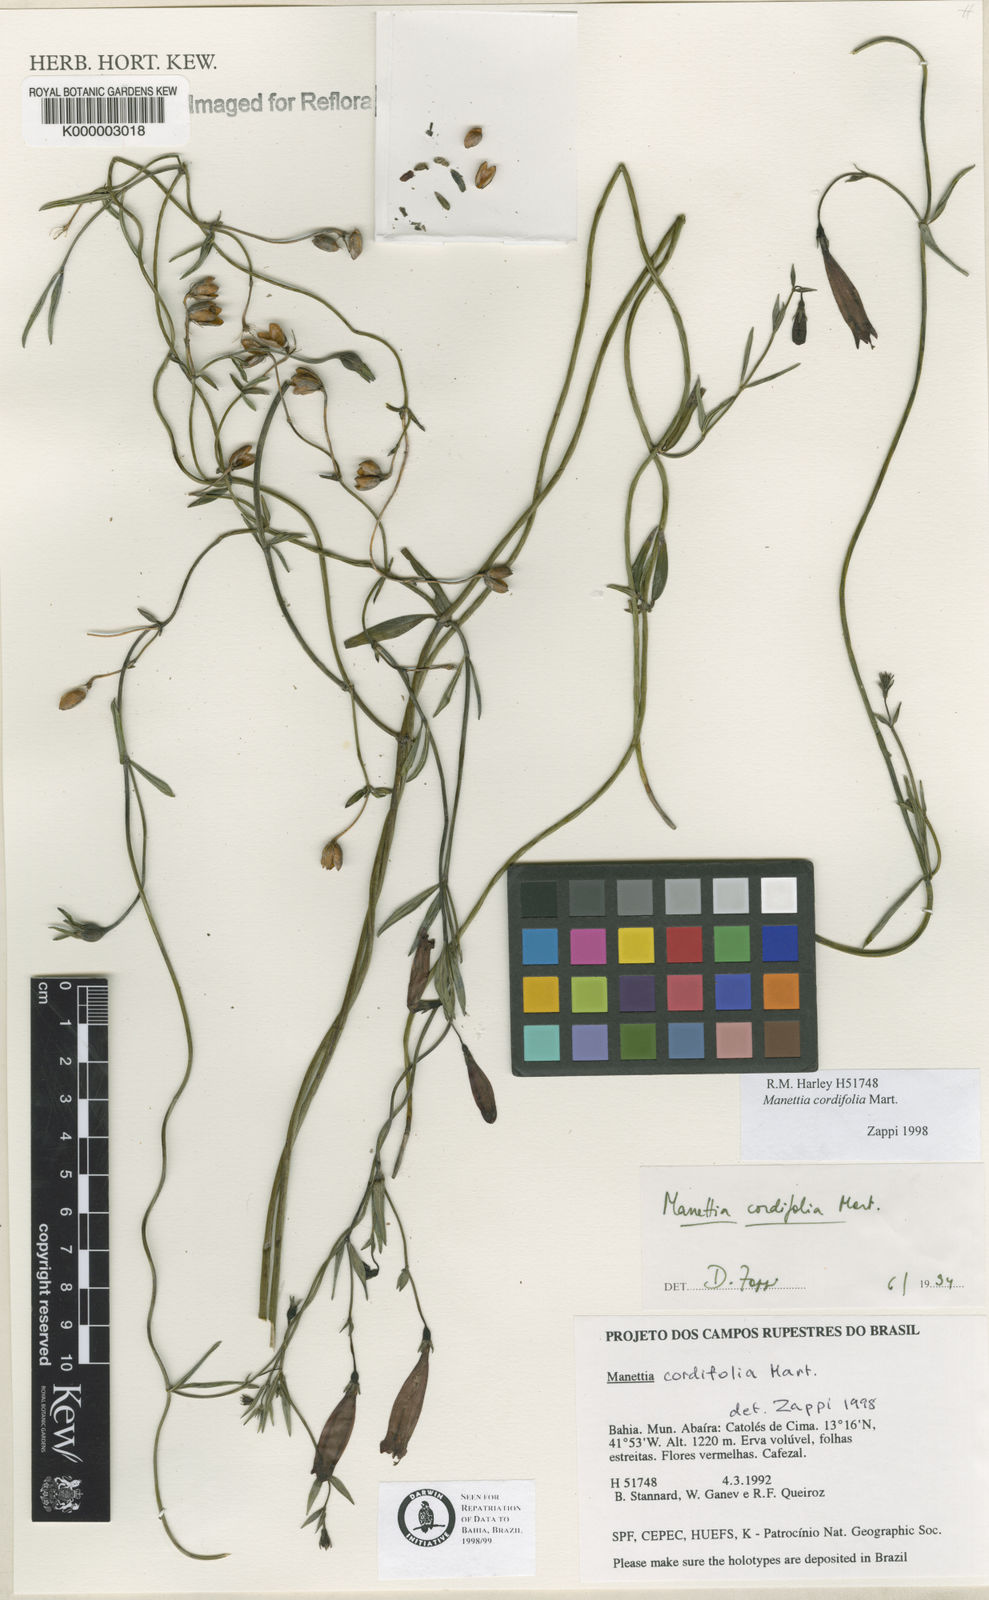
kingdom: Plantae
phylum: Tracheophyta
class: Magnoliopsida
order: Gentianales
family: Rubiaceae
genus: Manettia
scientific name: Manettia cordifolia
